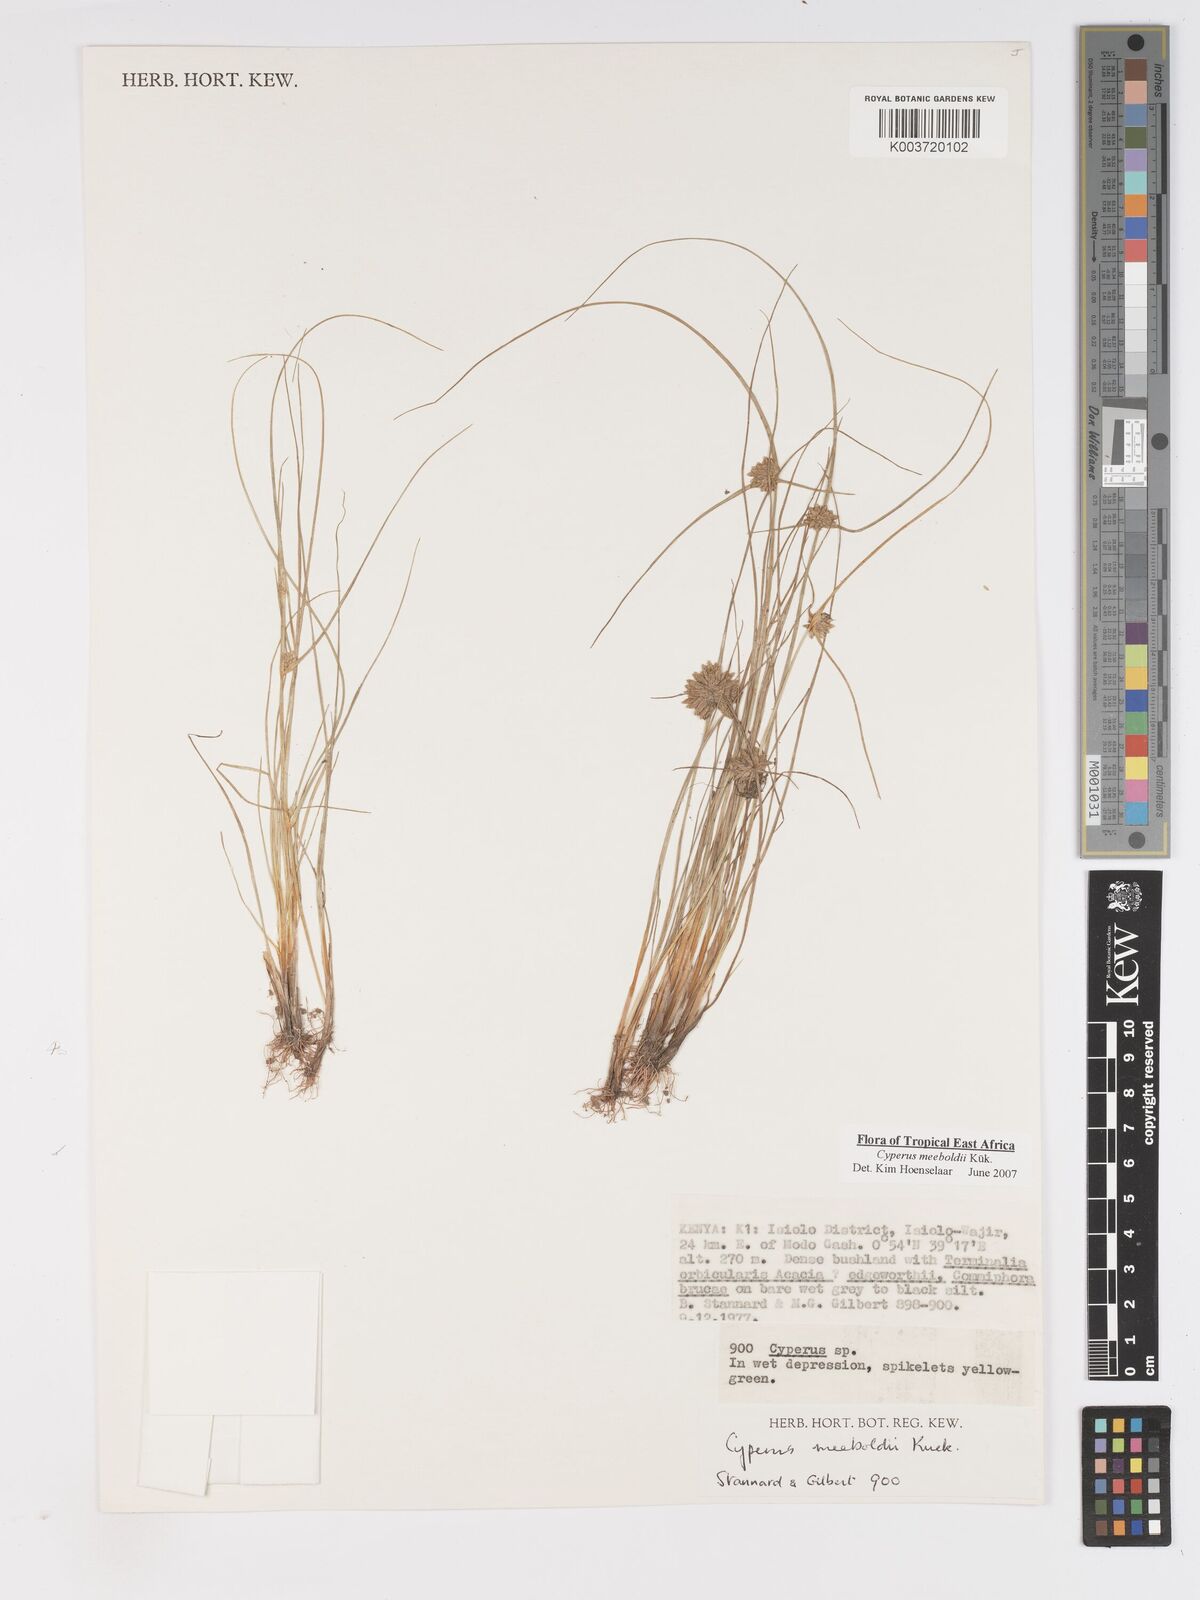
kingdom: Plantae
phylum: Tracheophyta
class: Liliopsida
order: Poales
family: Cyperaceae
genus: Cyperus
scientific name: Cyperus meeboldii
